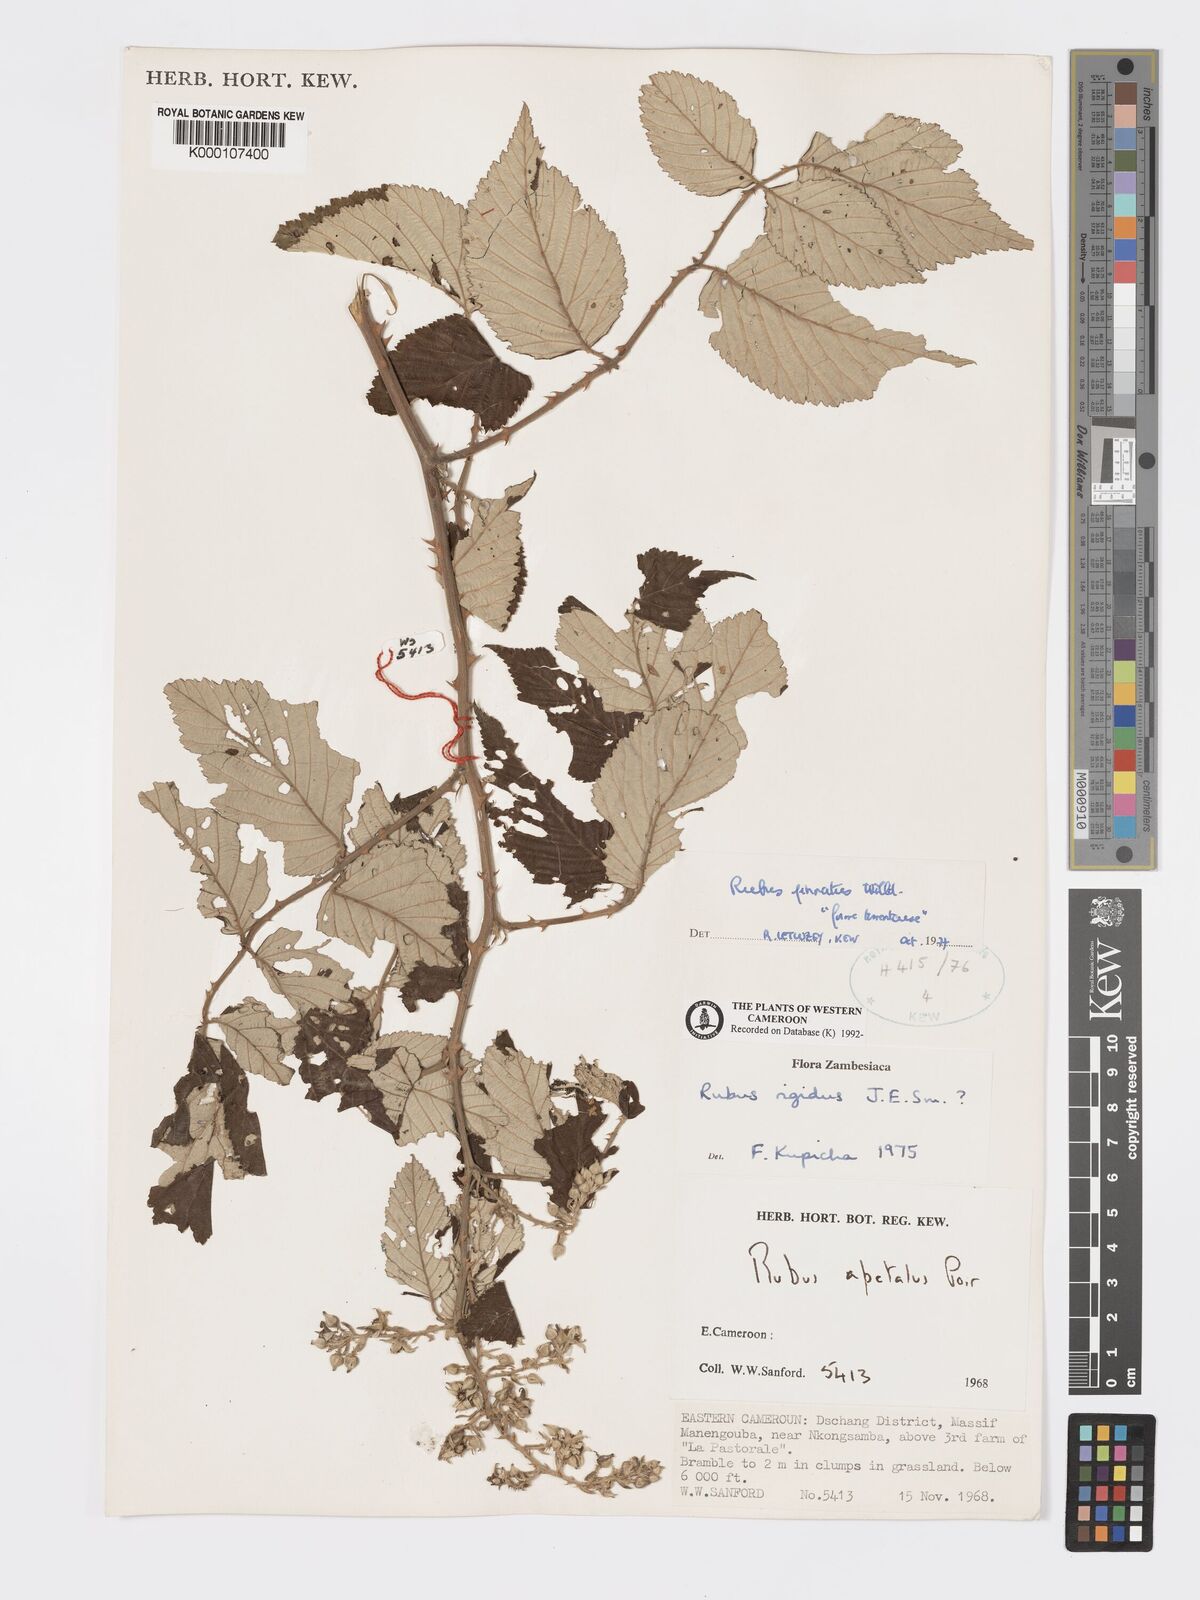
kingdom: Plantae
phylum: Tracheophyta
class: Magnoliopsida
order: Rosales
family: Rosaceae
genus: Rubus
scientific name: Rubus pinnatus
